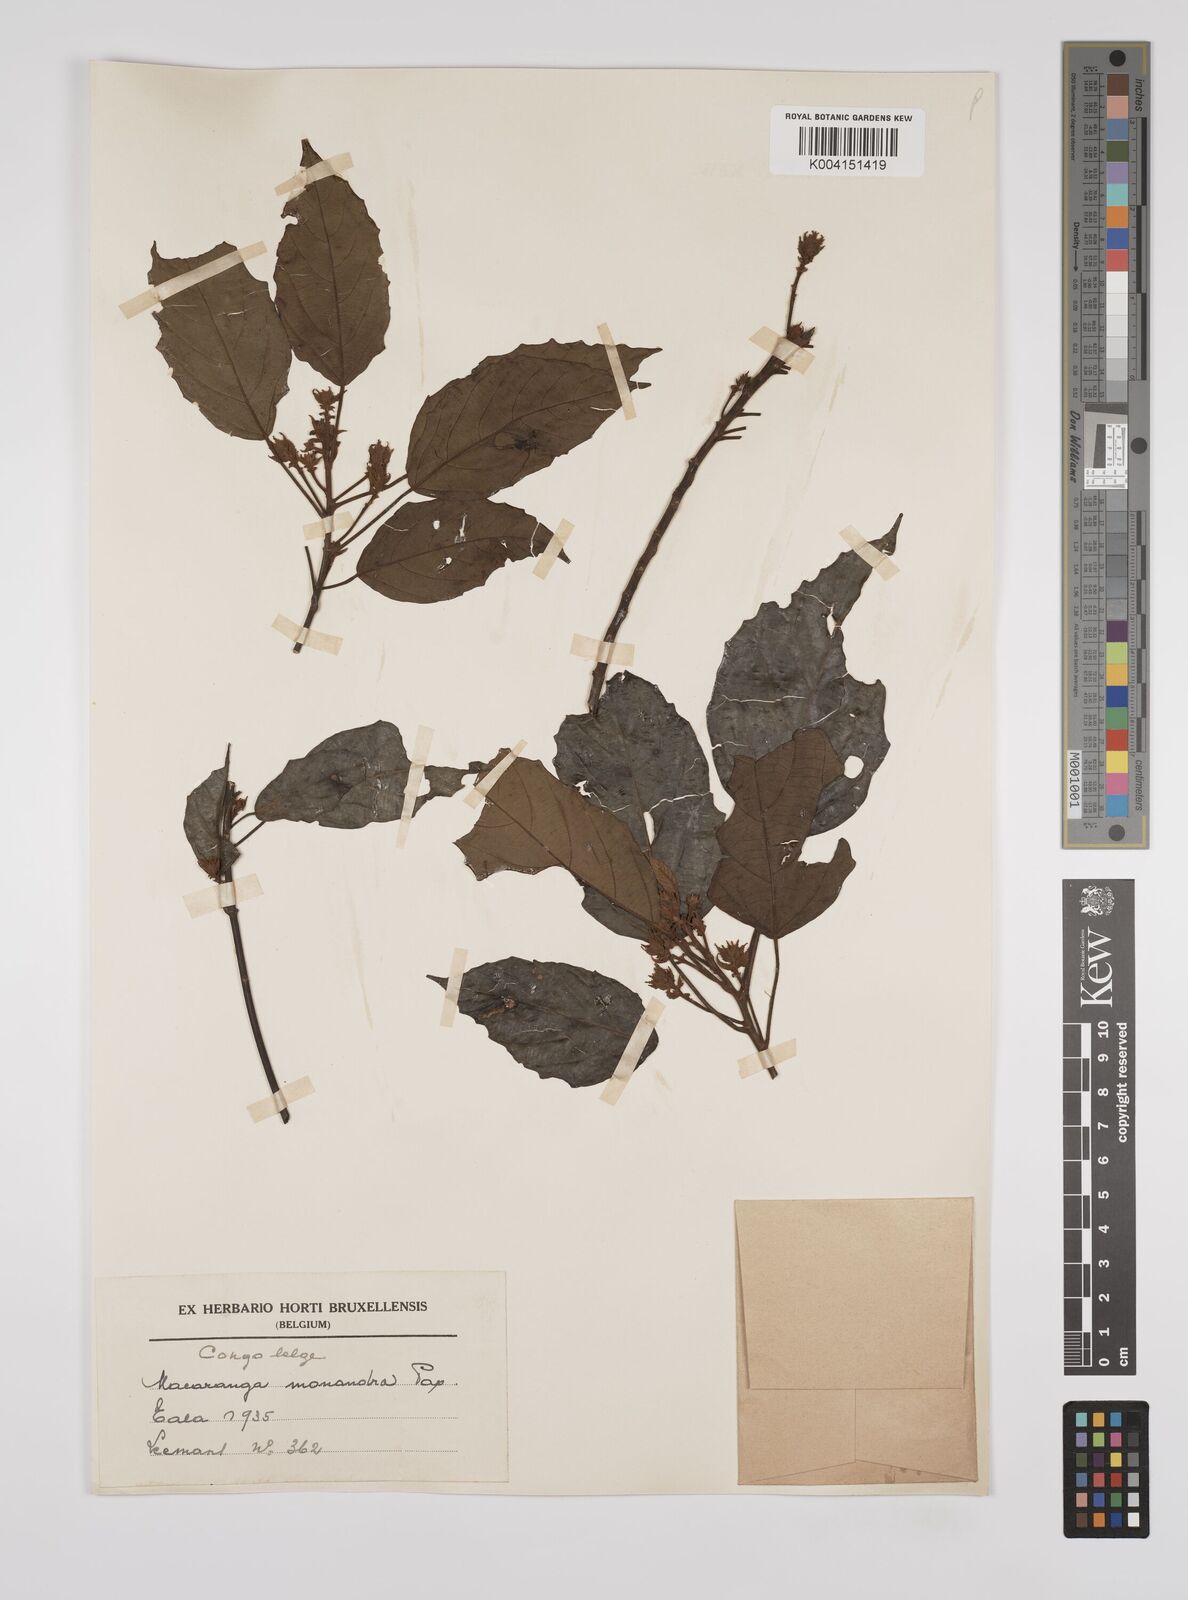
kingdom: Plantae
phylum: Tracheophyta
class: Magnoliopsida
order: Malpighiales
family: Euphorbiaceae
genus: Macaranga
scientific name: Macaranga monandra
